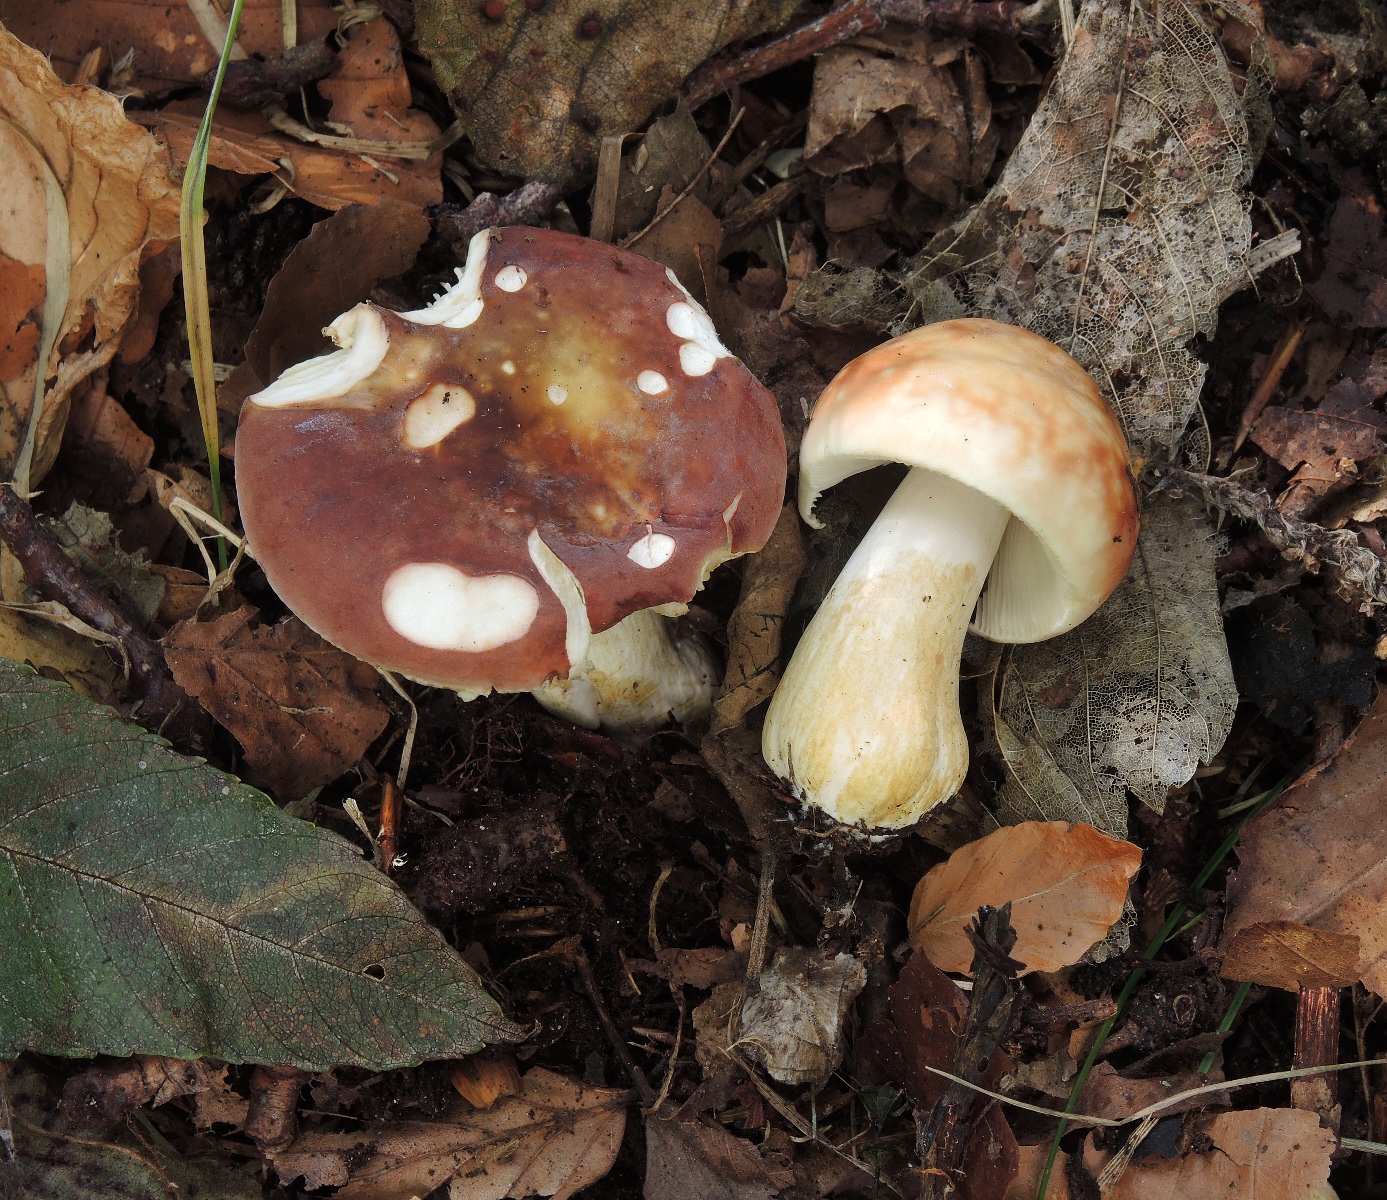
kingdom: Fungi
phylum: Basidiomycota
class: Agaricomycetes
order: Russulales
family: Russulaceae
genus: Russula
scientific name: Russula subrubens
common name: pile-skørhat
